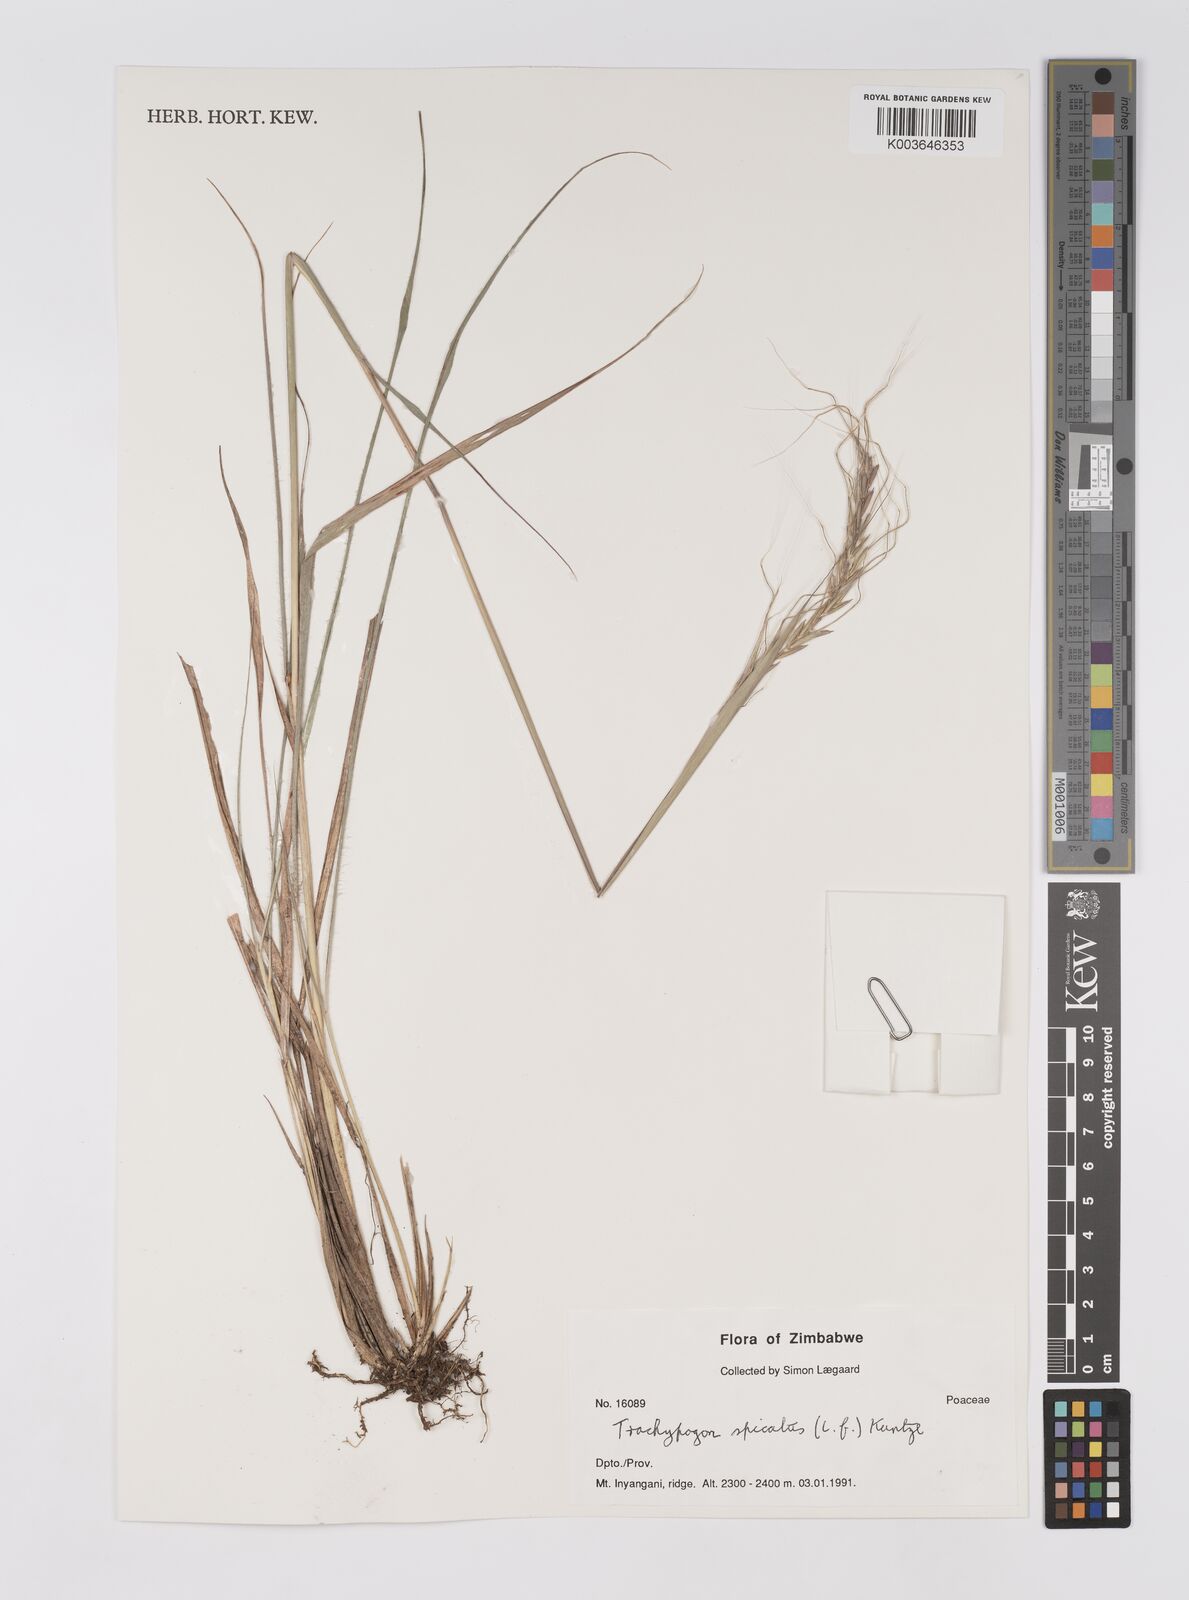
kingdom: Plantae
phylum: Tracheophyta
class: Liliopsida
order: Poales
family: Poaceae
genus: Trachypogon
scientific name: Trachypogon spicatus
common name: Crinkle-awn
